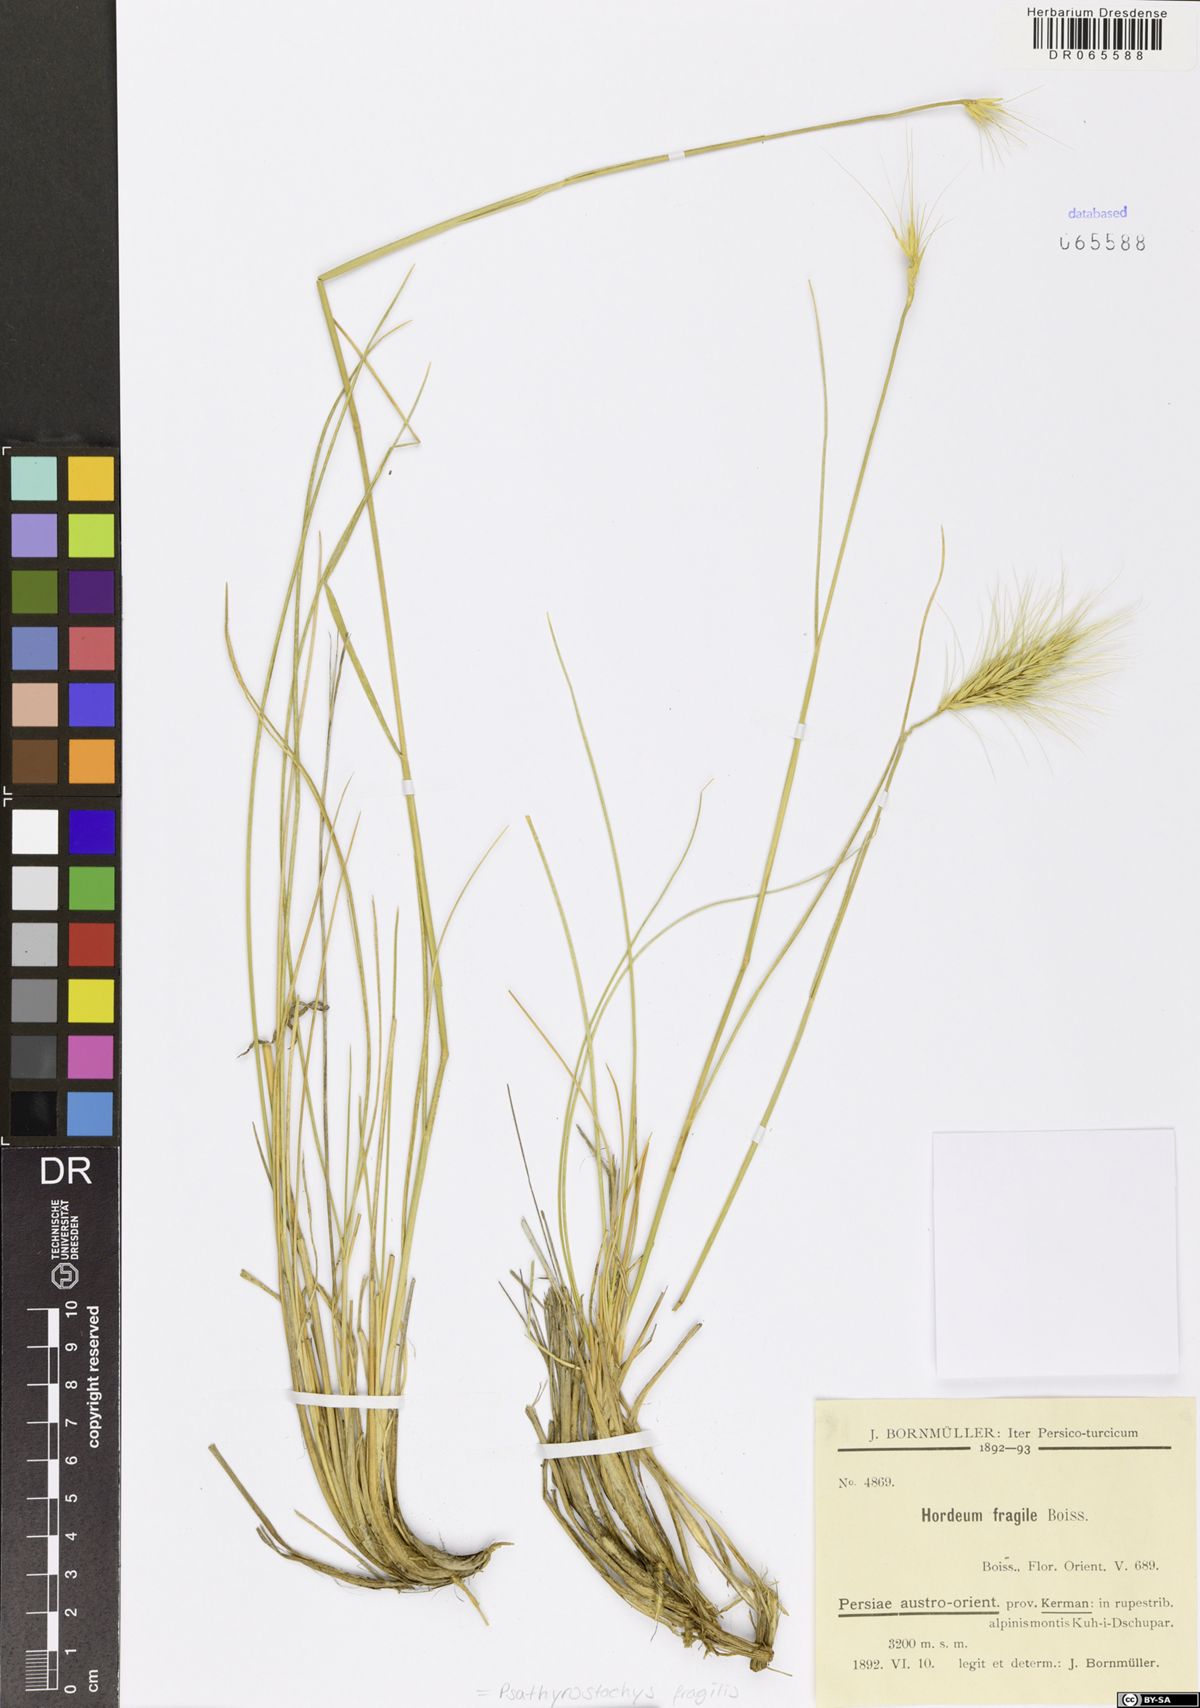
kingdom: Plantae
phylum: Tracheophyta
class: Liliopsida
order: Poales
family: Poaceae
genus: Psathyrostachys
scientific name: Psathyrostachys fragilis
